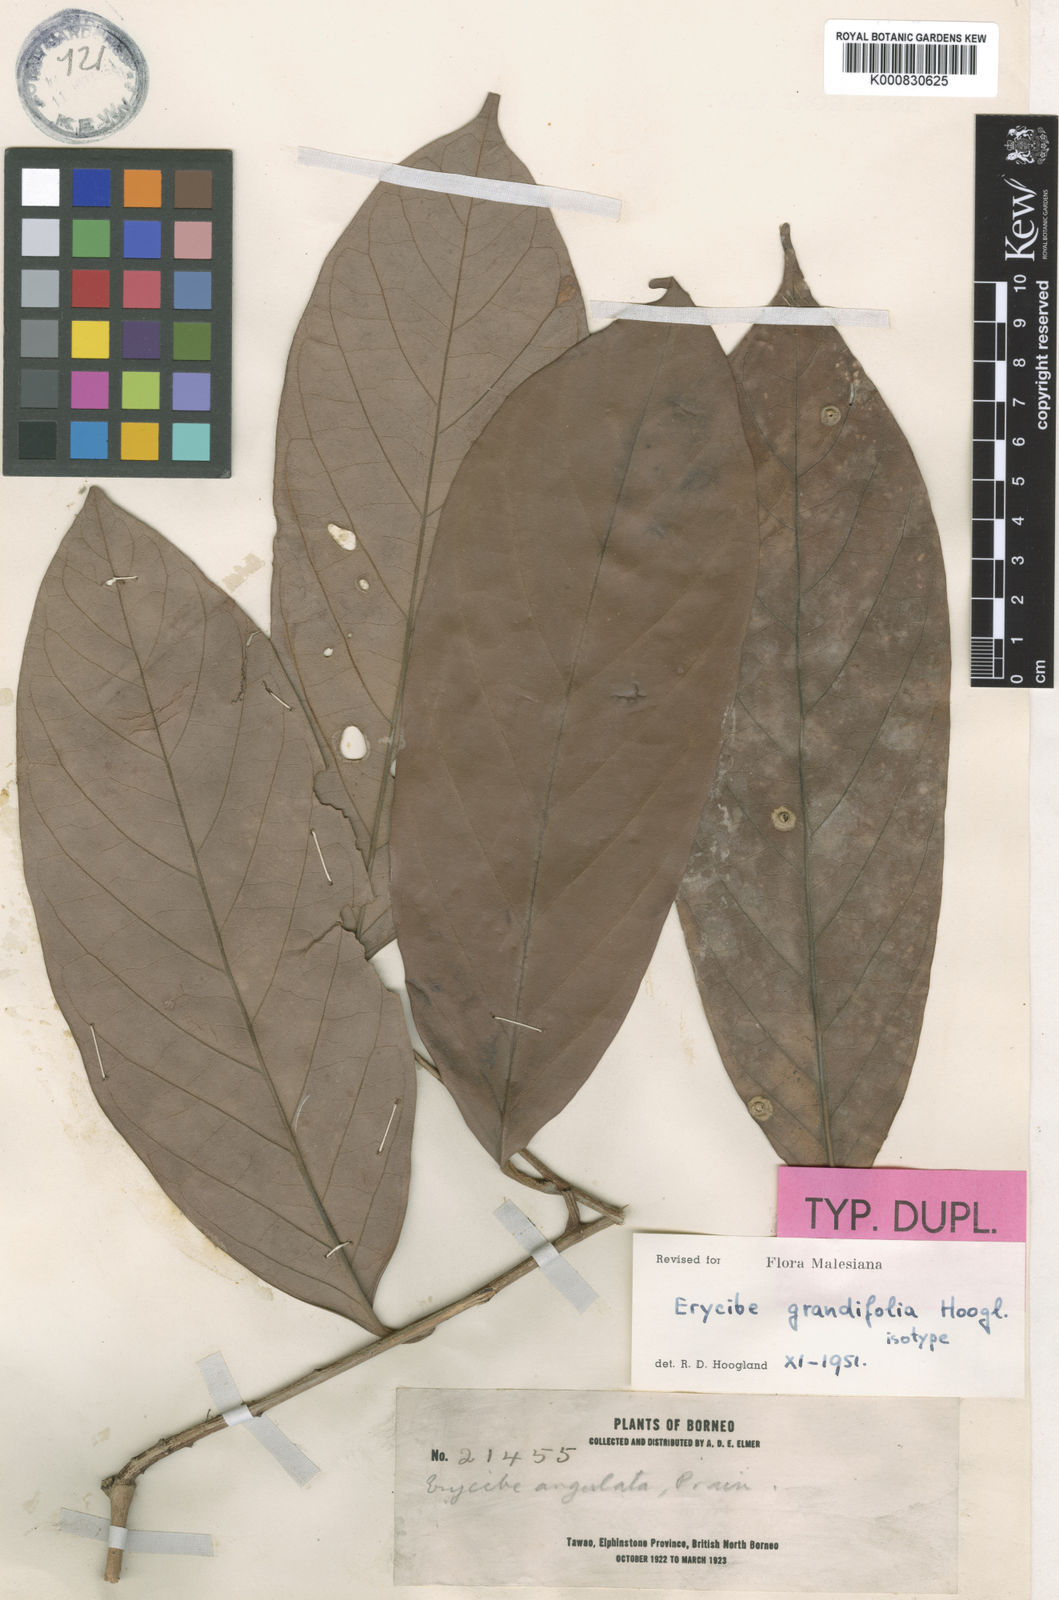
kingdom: Plantae
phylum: Tracheophyta
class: Magnoliopsida
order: Solanales
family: Convolvulaceae
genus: Erycibe
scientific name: Erycibe grandifolia
